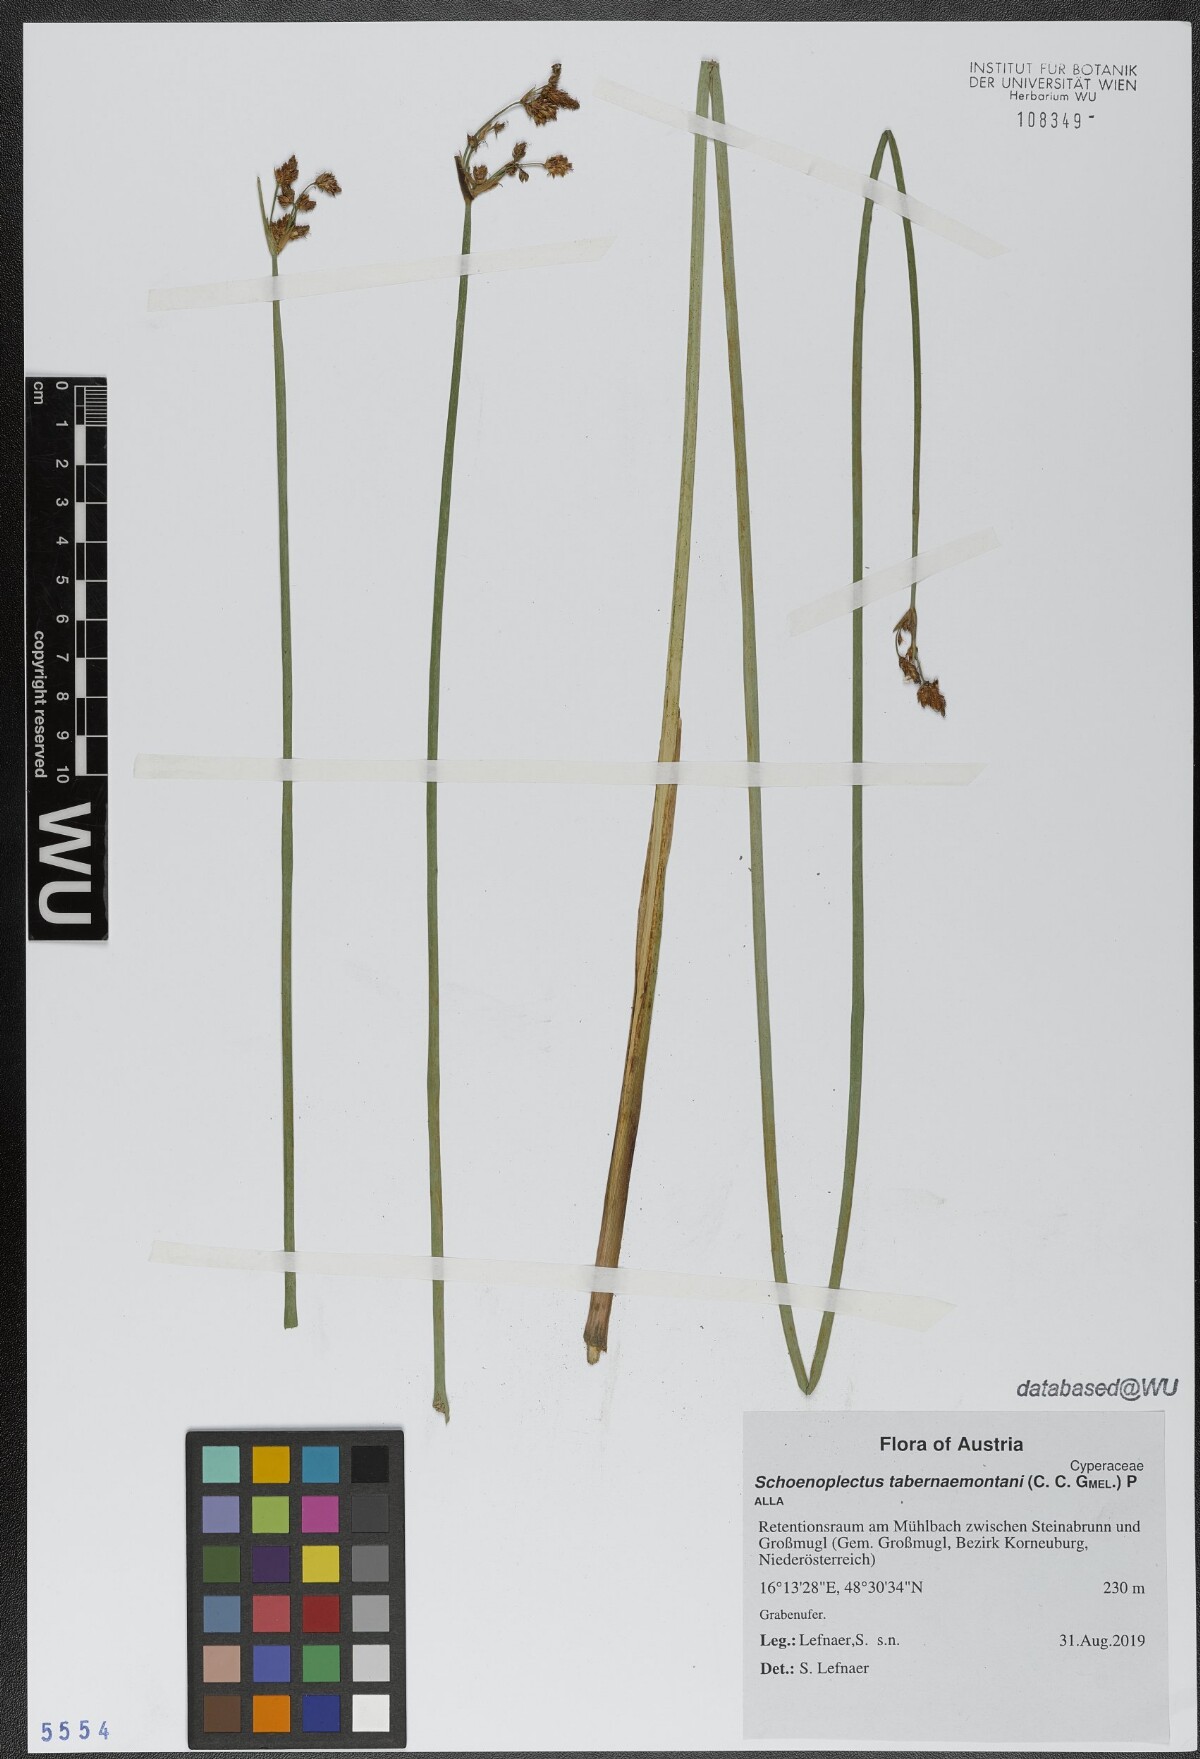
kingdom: Plantae
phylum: Tracheophyta
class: Liliopsida
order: Poales
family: Cyperaceae
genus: Schoenoplectus
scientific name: Schoenoplectus tabernaemontani
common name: Grey club-rush
